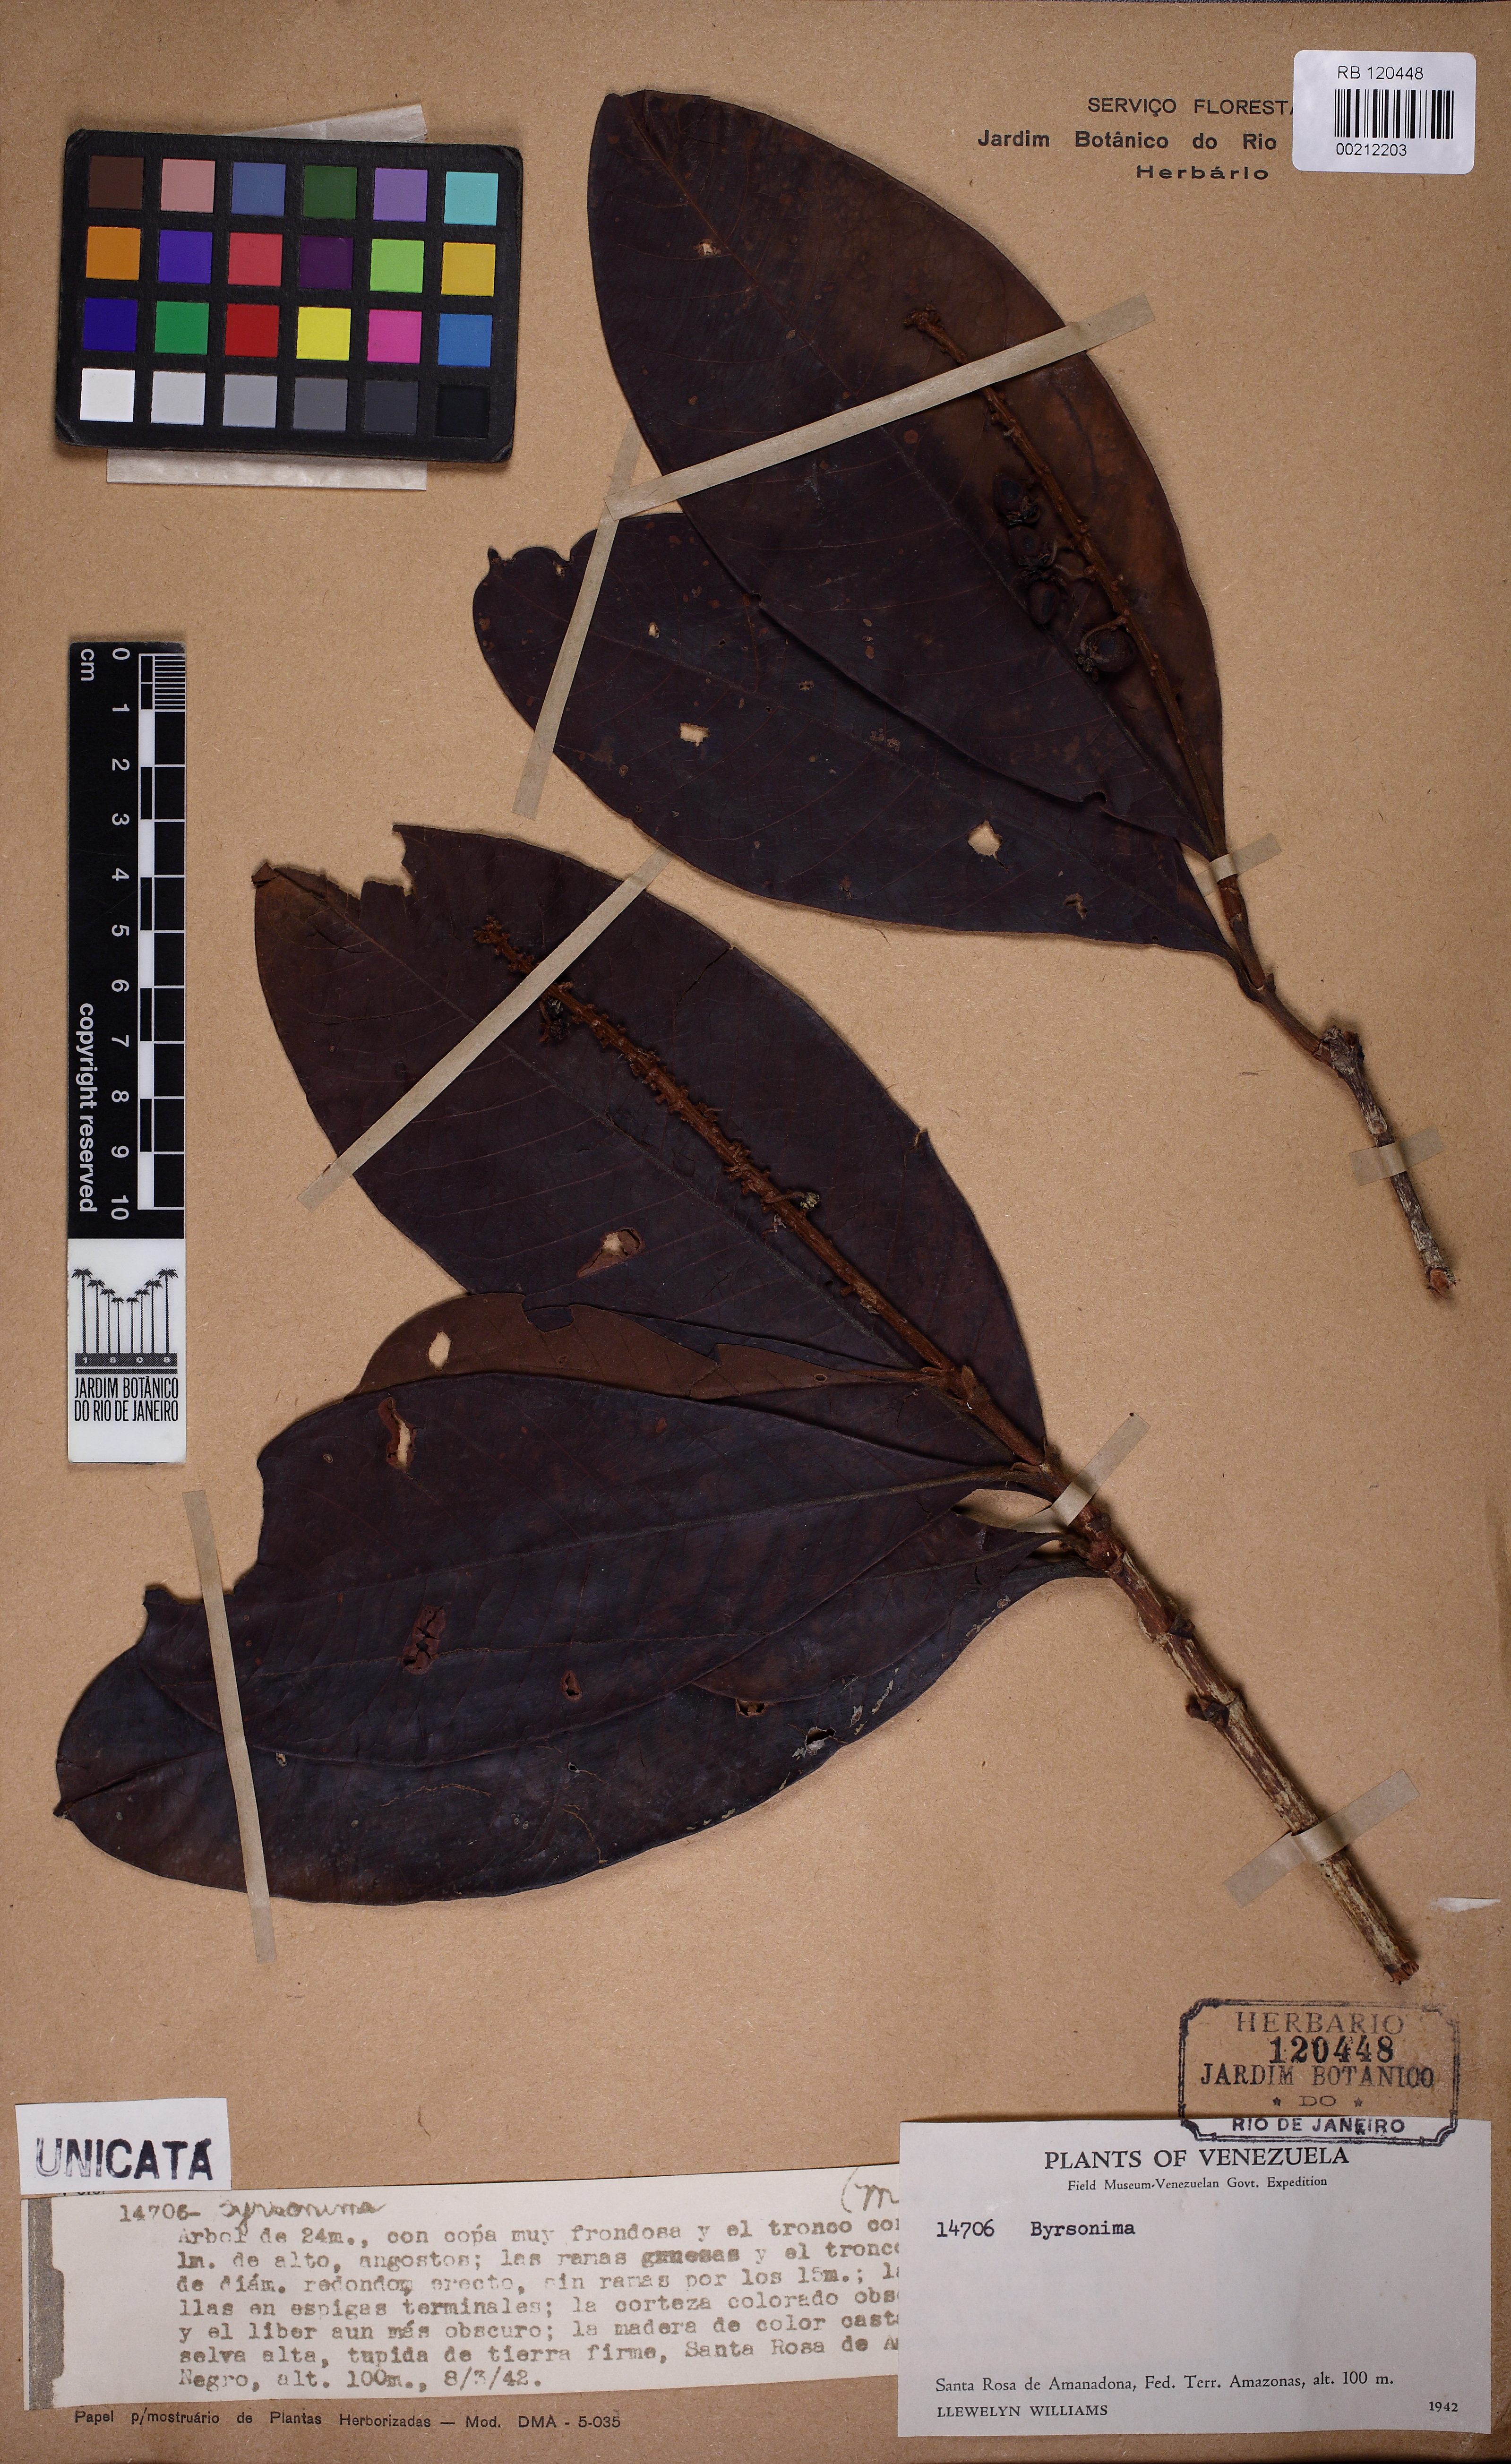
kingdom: Plantae
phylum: Tracheophyta
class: Magnoliopsida
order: Malpighiales
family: Malpighiaceae
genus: Byrsonima
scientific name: Byrsonima fanshawei
